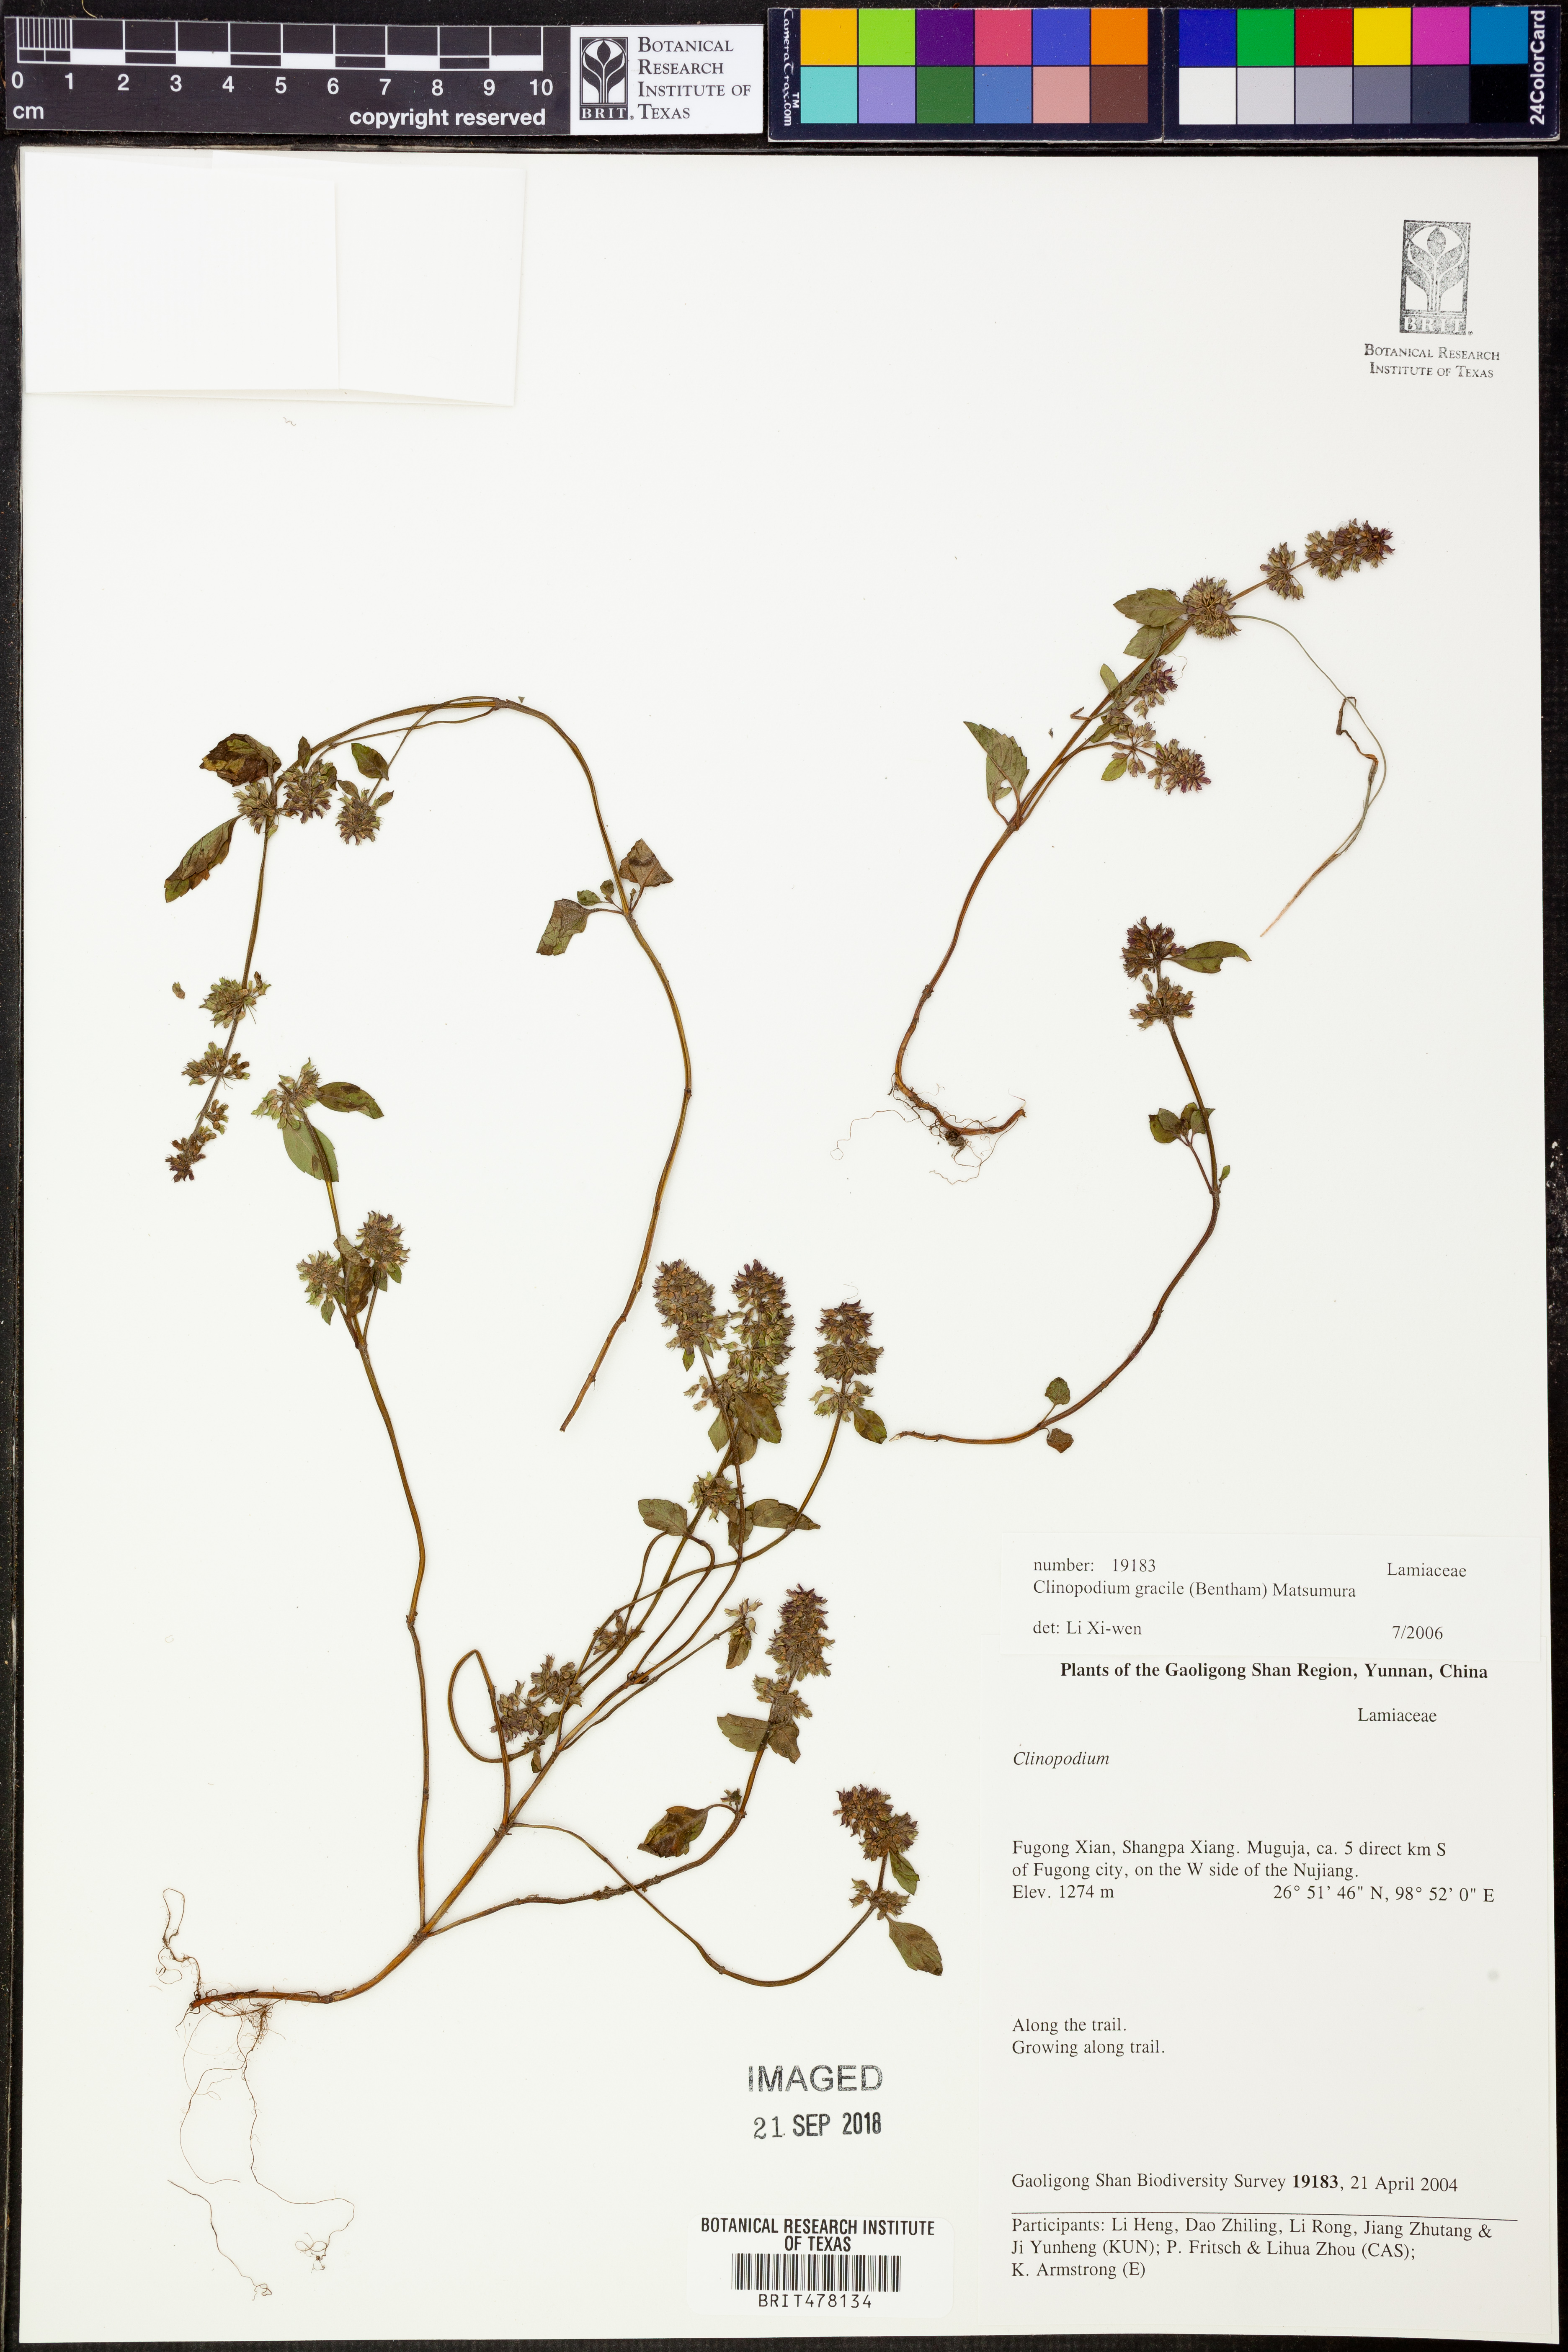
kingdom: Plantae
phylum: Tracheophyta
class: Magnoliopsida
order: Lamiales
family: Lamiaceae
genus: Clinopodium
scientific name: Clinopodium gracile
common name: Slender wild basil
